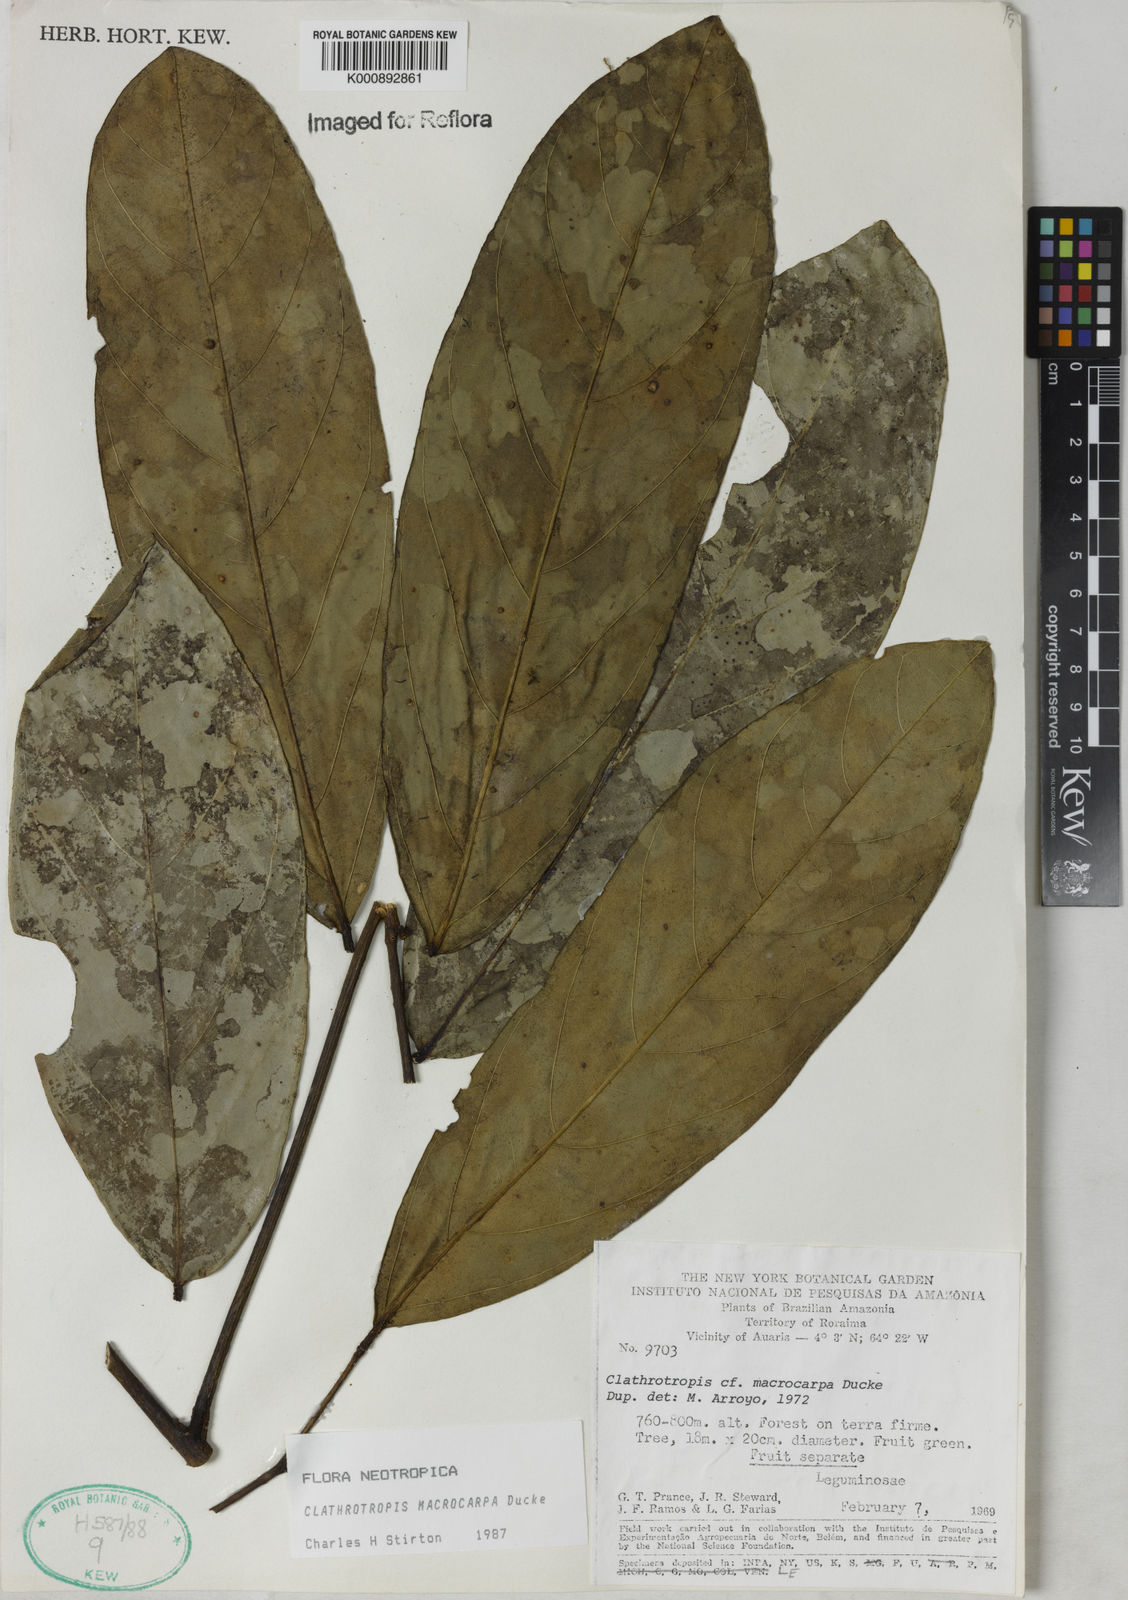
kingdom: Plantae
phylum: Tracheophyta
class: Magnoliopsida
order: Fabales
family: Fabaceae
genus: Clathrotropis
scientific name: Clathrotropis macrocarpa
